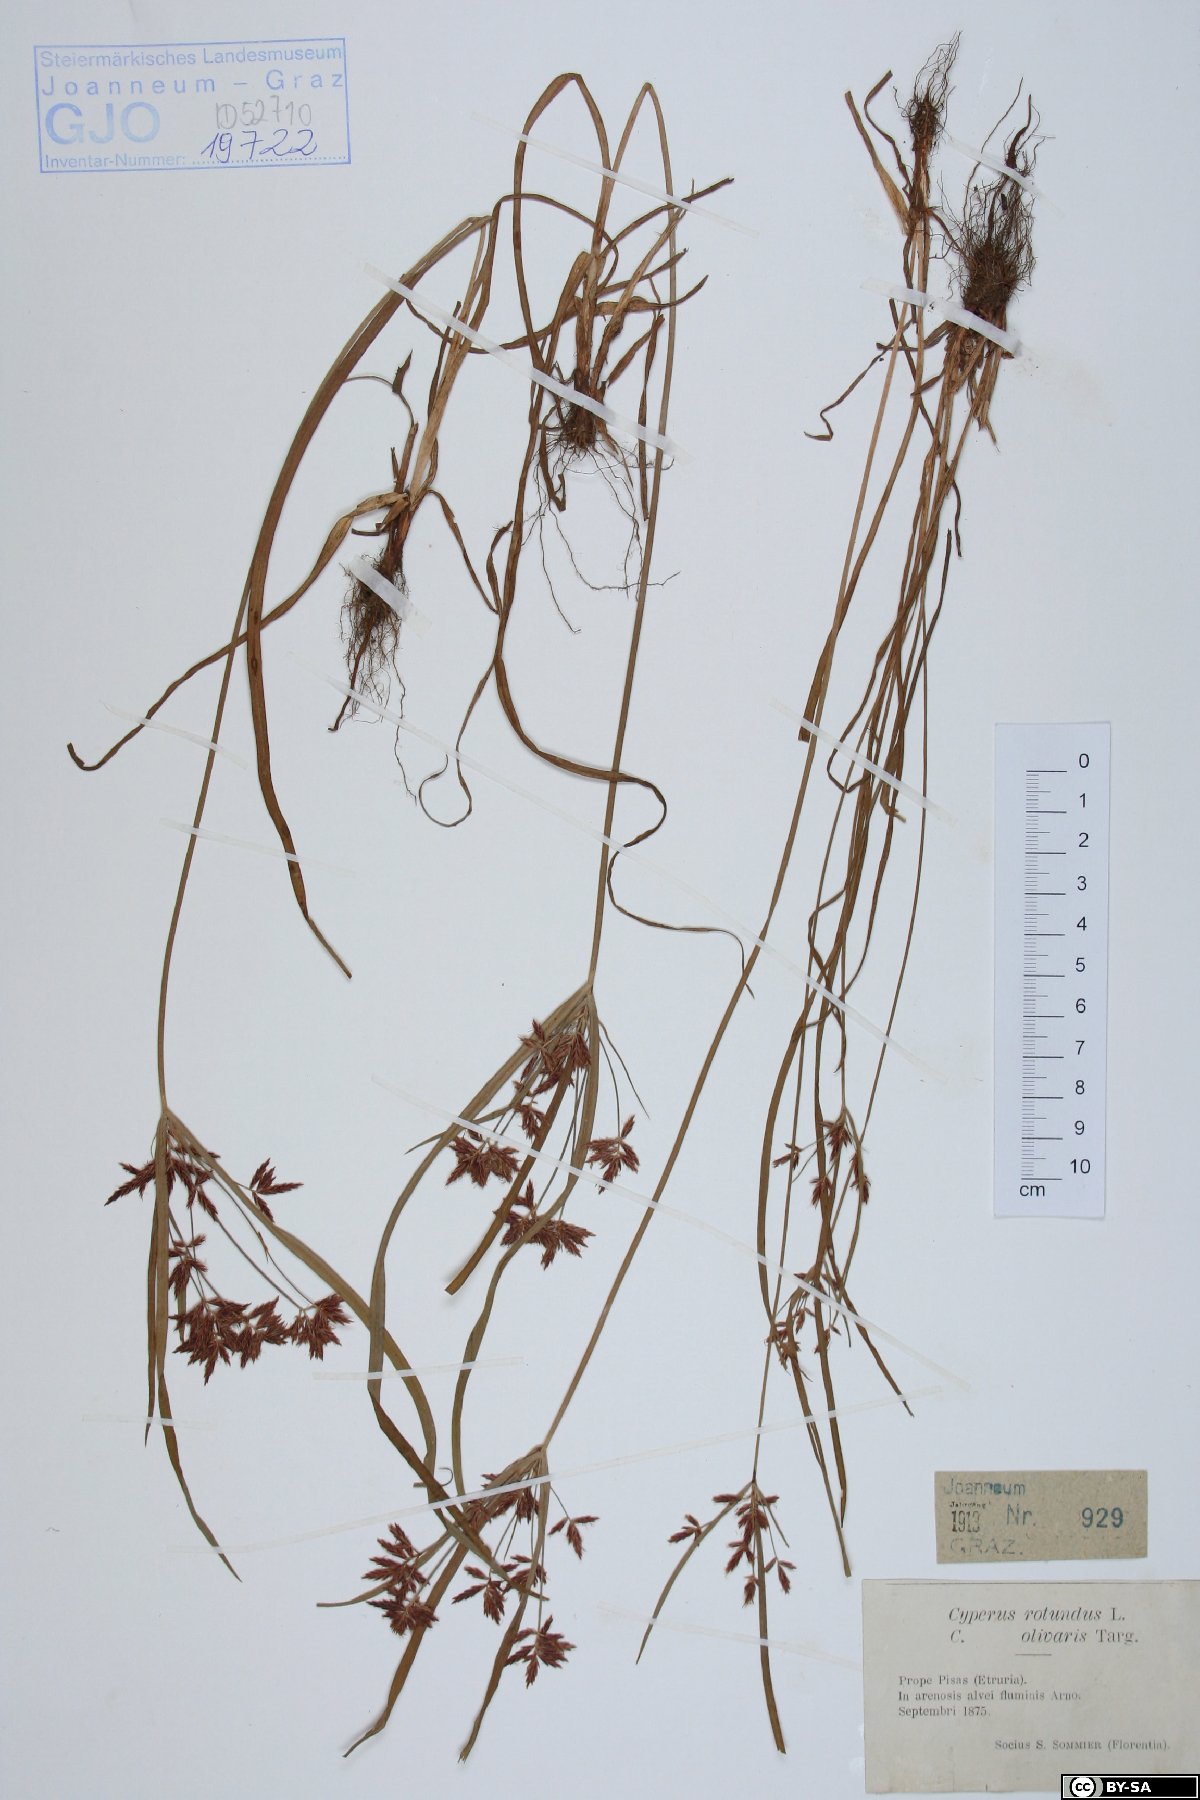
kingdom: Plantae
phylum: Tracheophyta
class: Liliopsida
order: Poales
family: Cyperaceae
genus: Cyperus
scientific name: Cyperus rotundus
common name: Nutgrass
